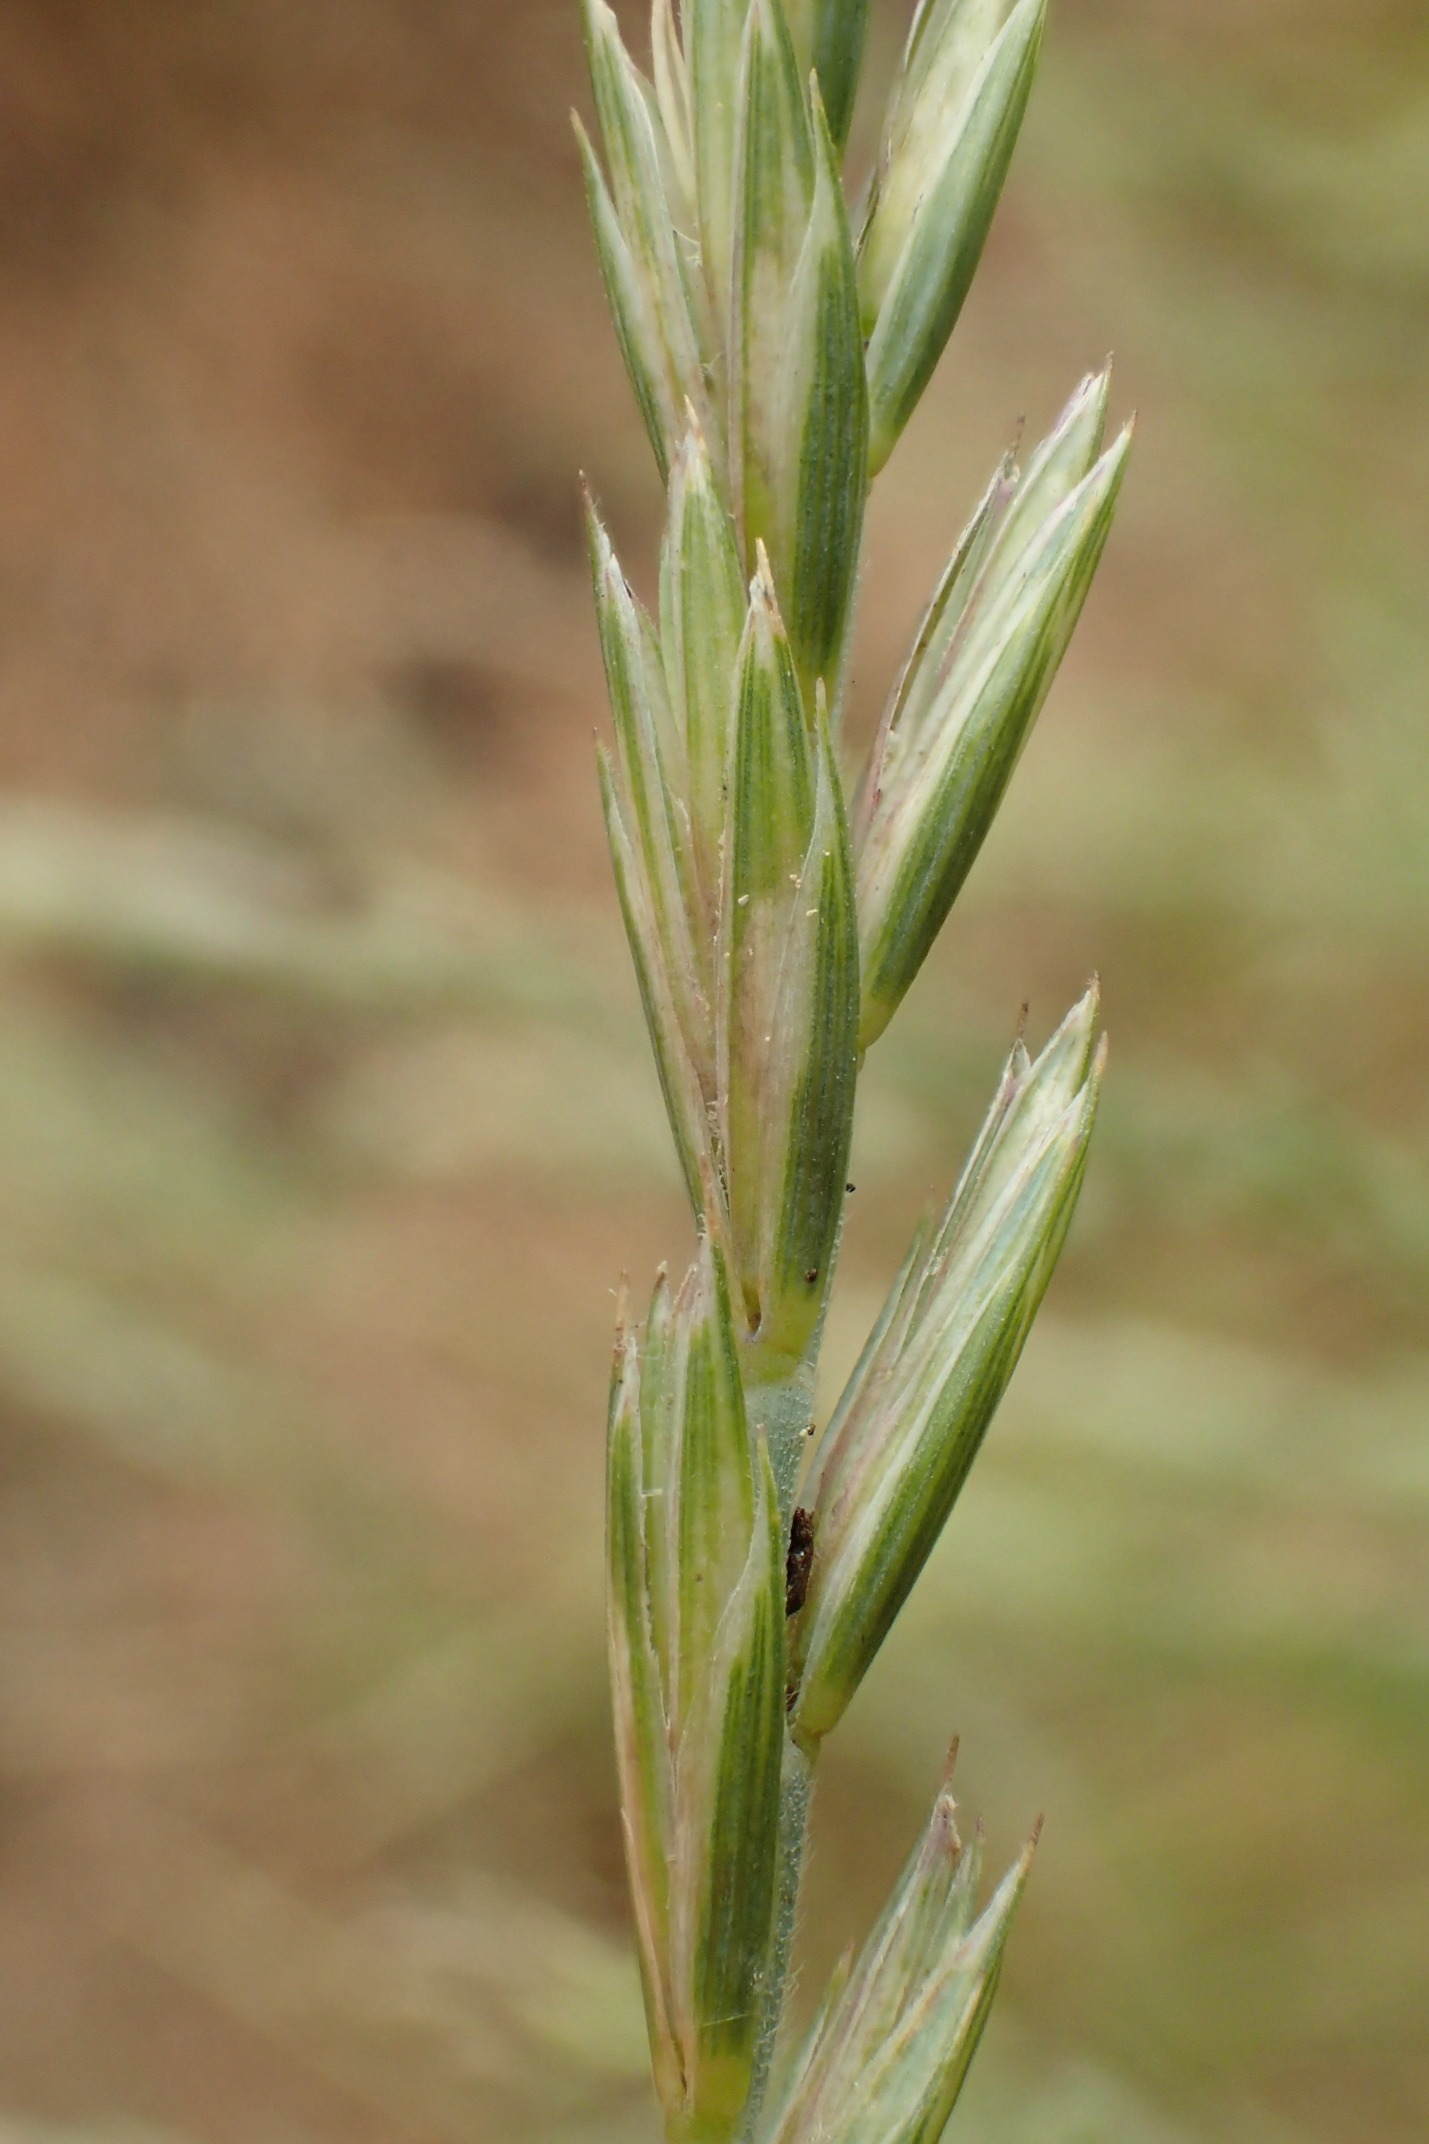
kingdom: Plantae
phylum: Tracheophyta
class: Liliopsida
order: Poales
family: Poaceae
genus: Elymus
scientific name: Elymus repens
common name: Almindelig kvik
